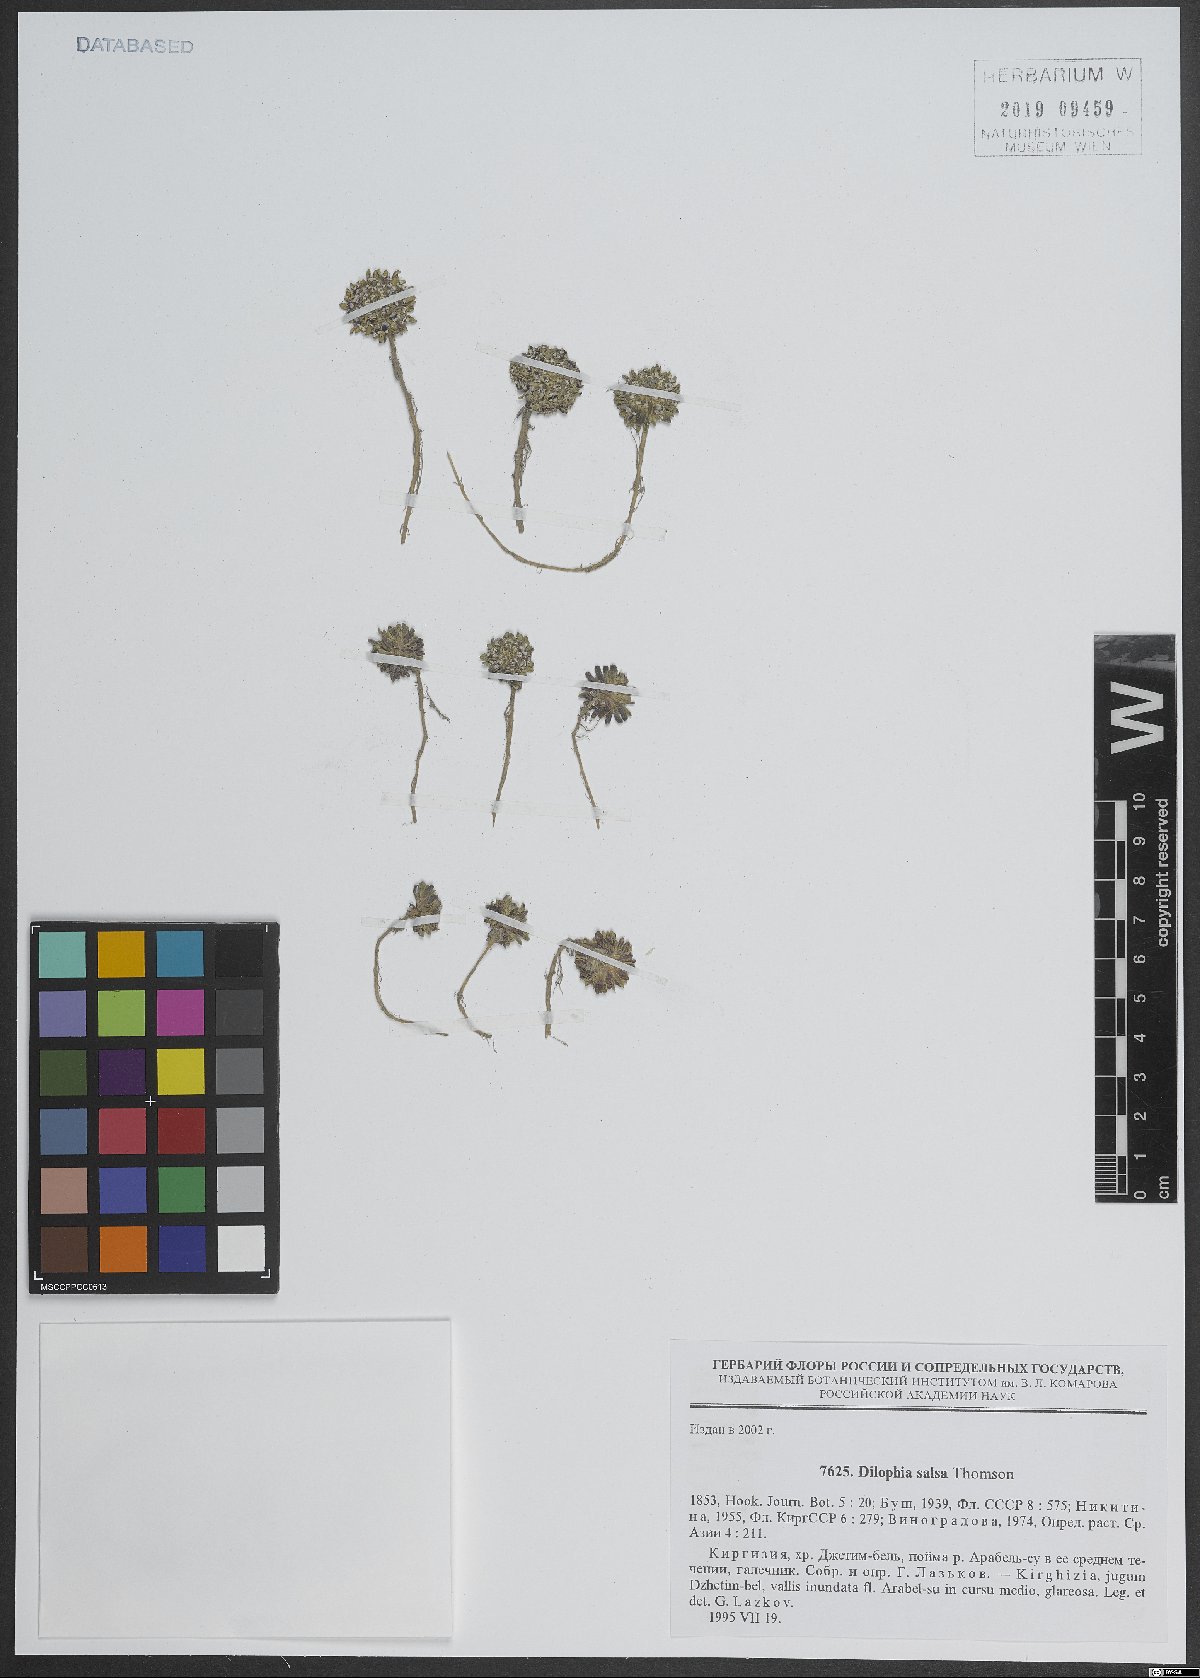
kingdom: Plantae
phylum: Tracheophyta
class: Magnoliopsida
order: Brassicales
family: Brassicaceae
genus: Dilophia
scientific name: Dilophia salsa
